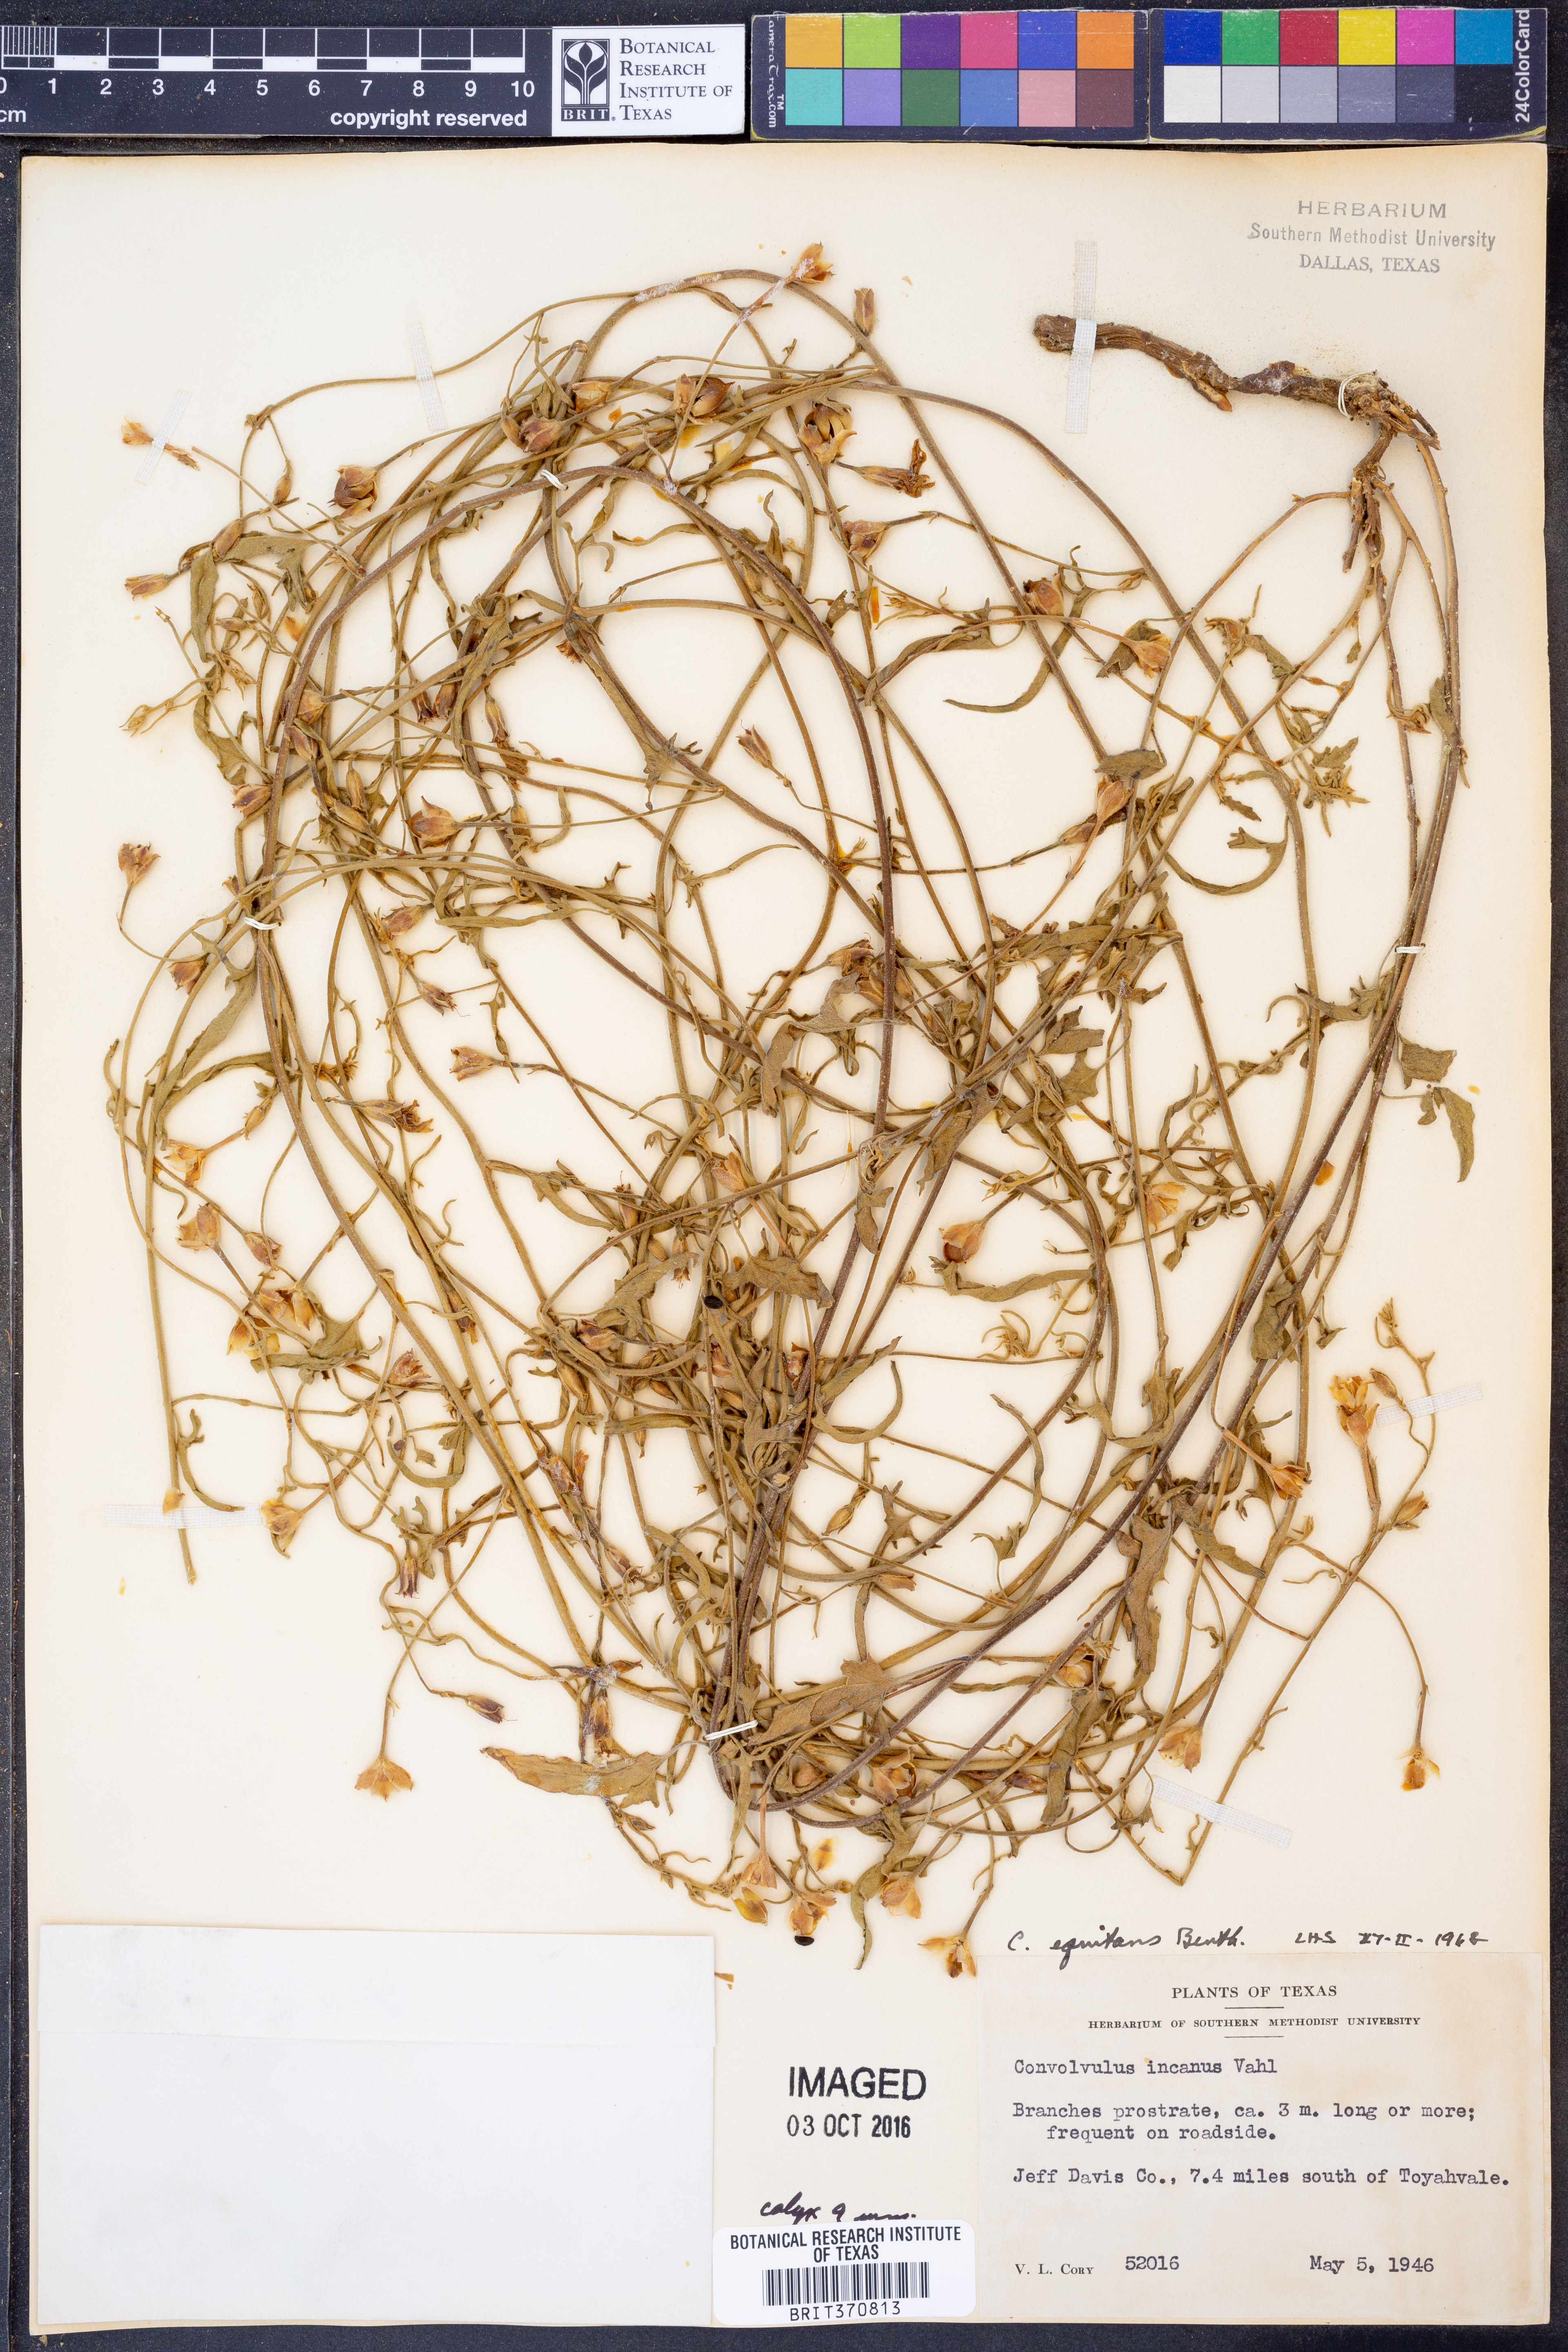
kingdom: Plantae
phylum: Tracheophyta
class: Magnoliopsida
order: Solanales
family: Convolvulaceae
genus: Convolvulus
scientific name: Convolvulus equitans
